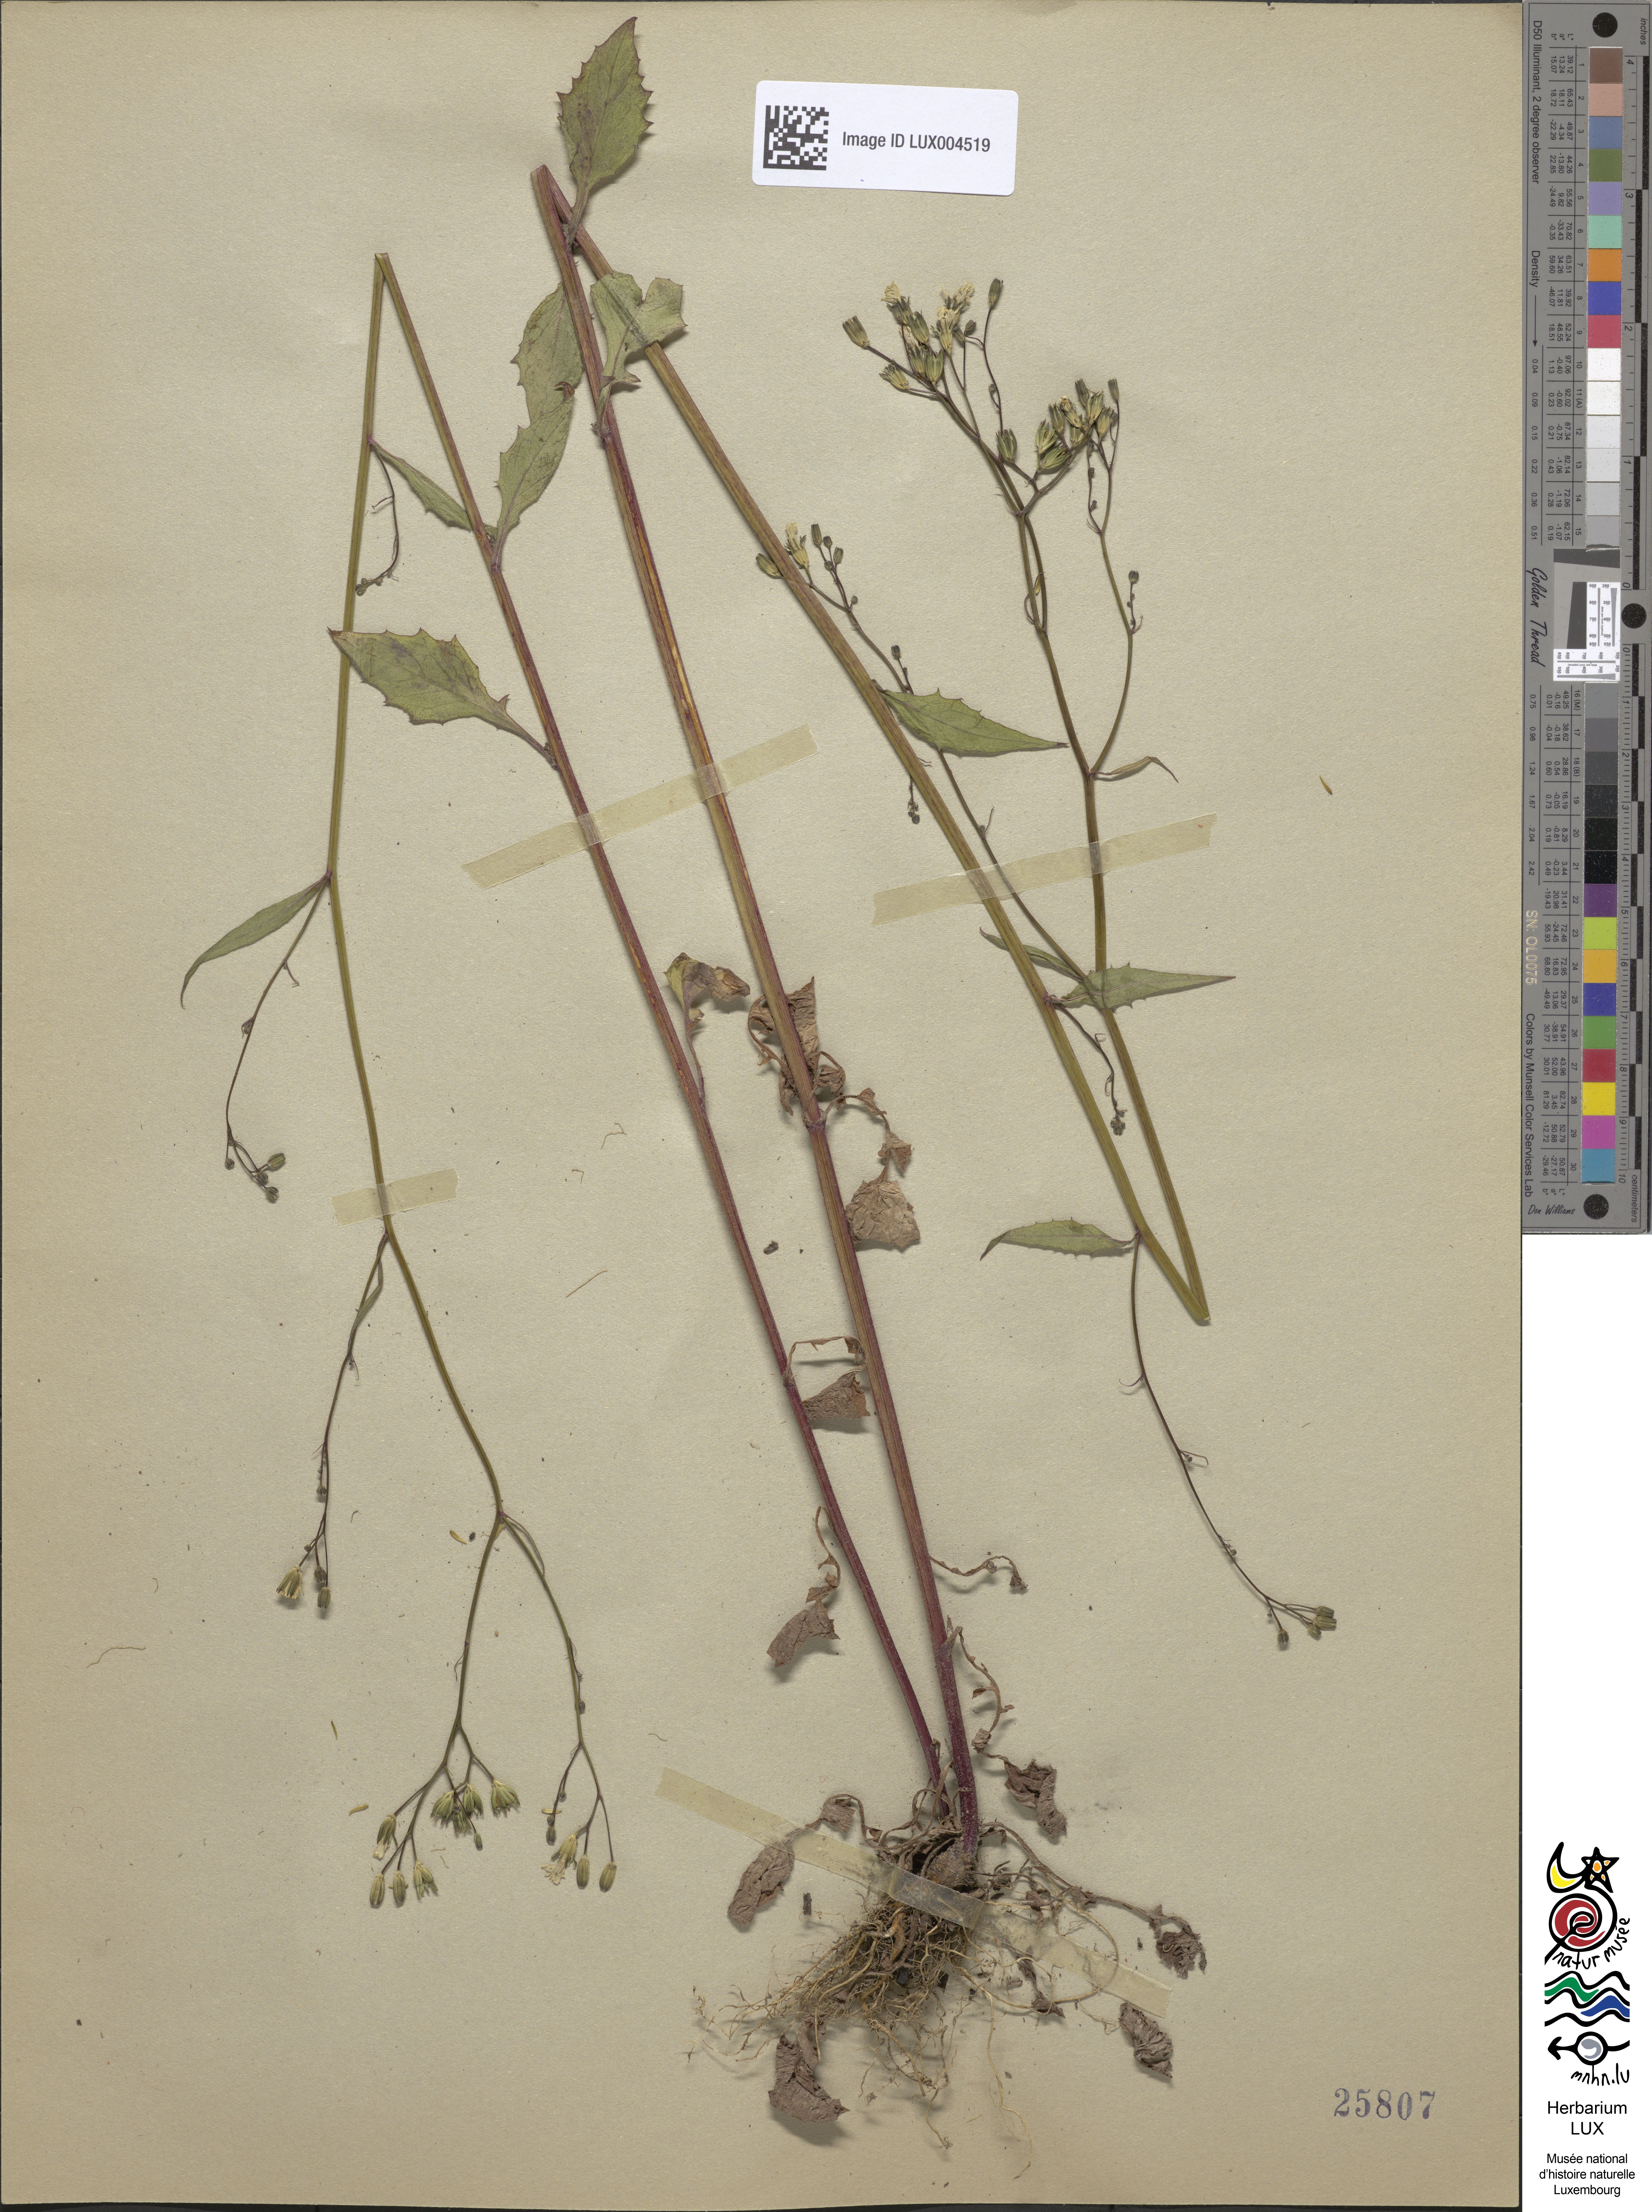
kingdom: Plantae
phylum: Tracheophyta
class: Magnoliopsida
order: Asterales
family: Asteraceae
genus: Lapsana
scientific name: Lapsana communis
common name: Nipplewort
